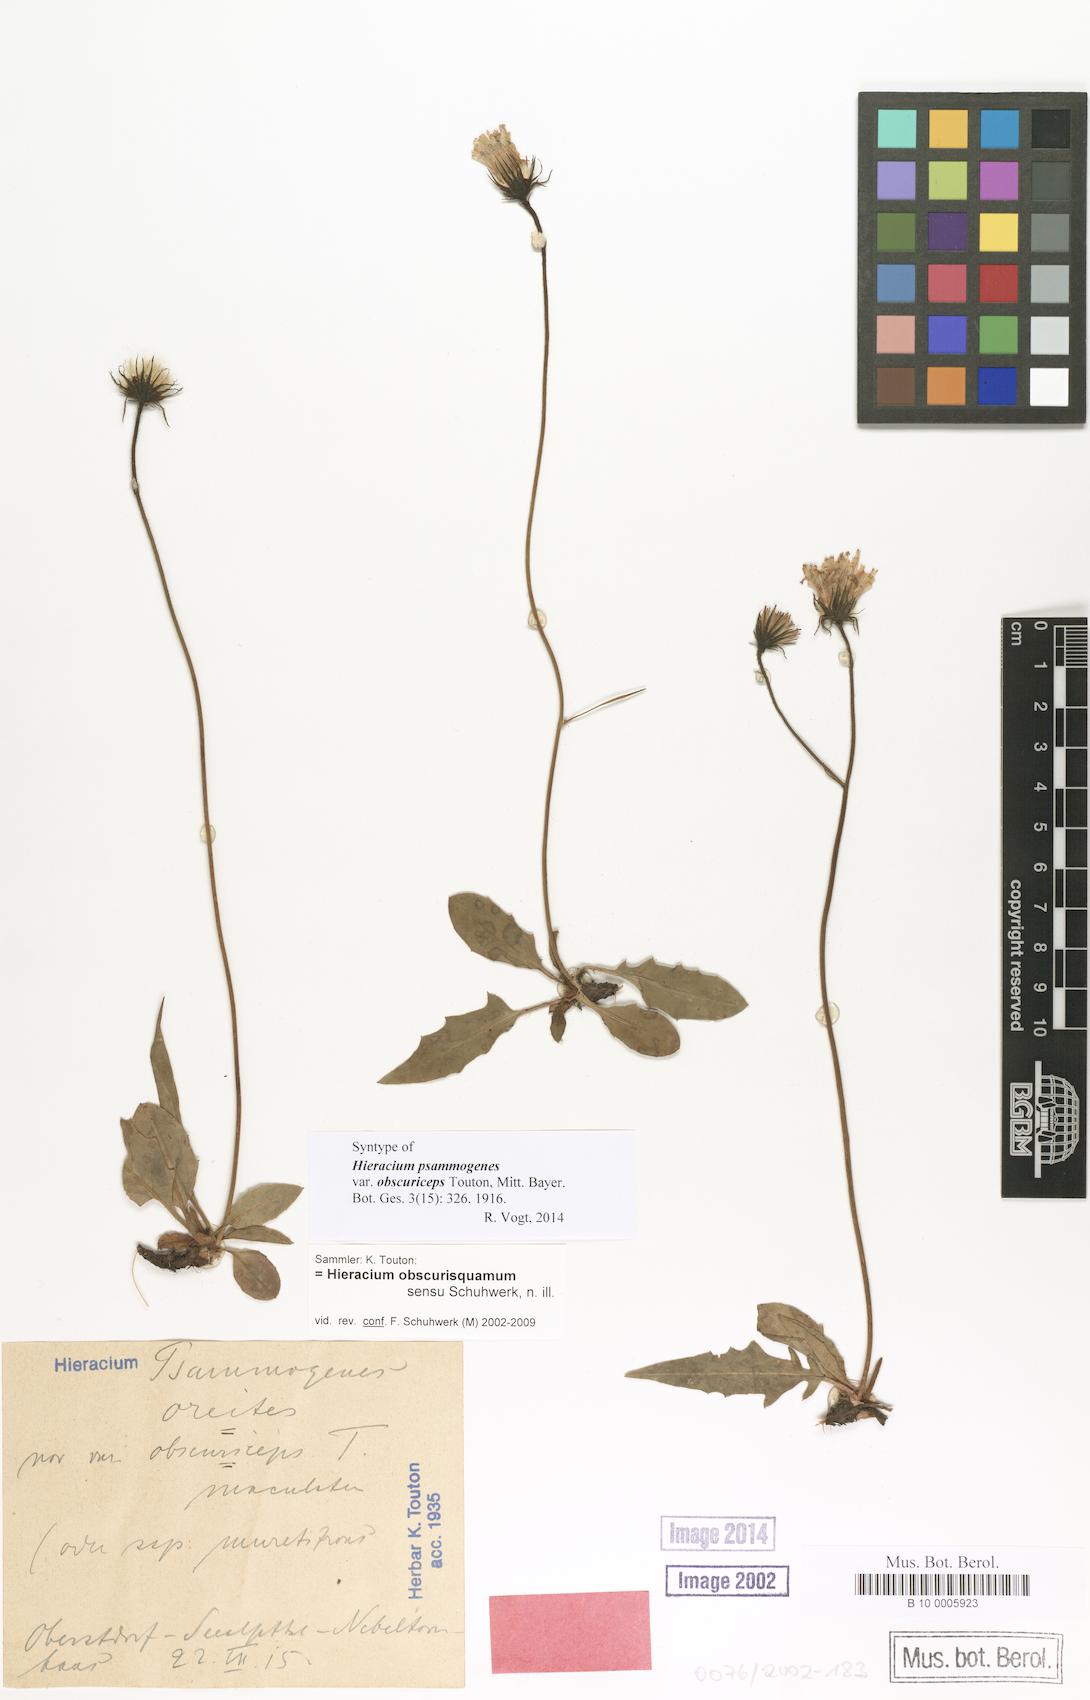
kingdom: Plantae
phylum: Tracheophyta
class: Magnoliopsida
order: Asterales
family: Asteraceae
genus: Hieracium
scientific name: Hieracium psammogenes
